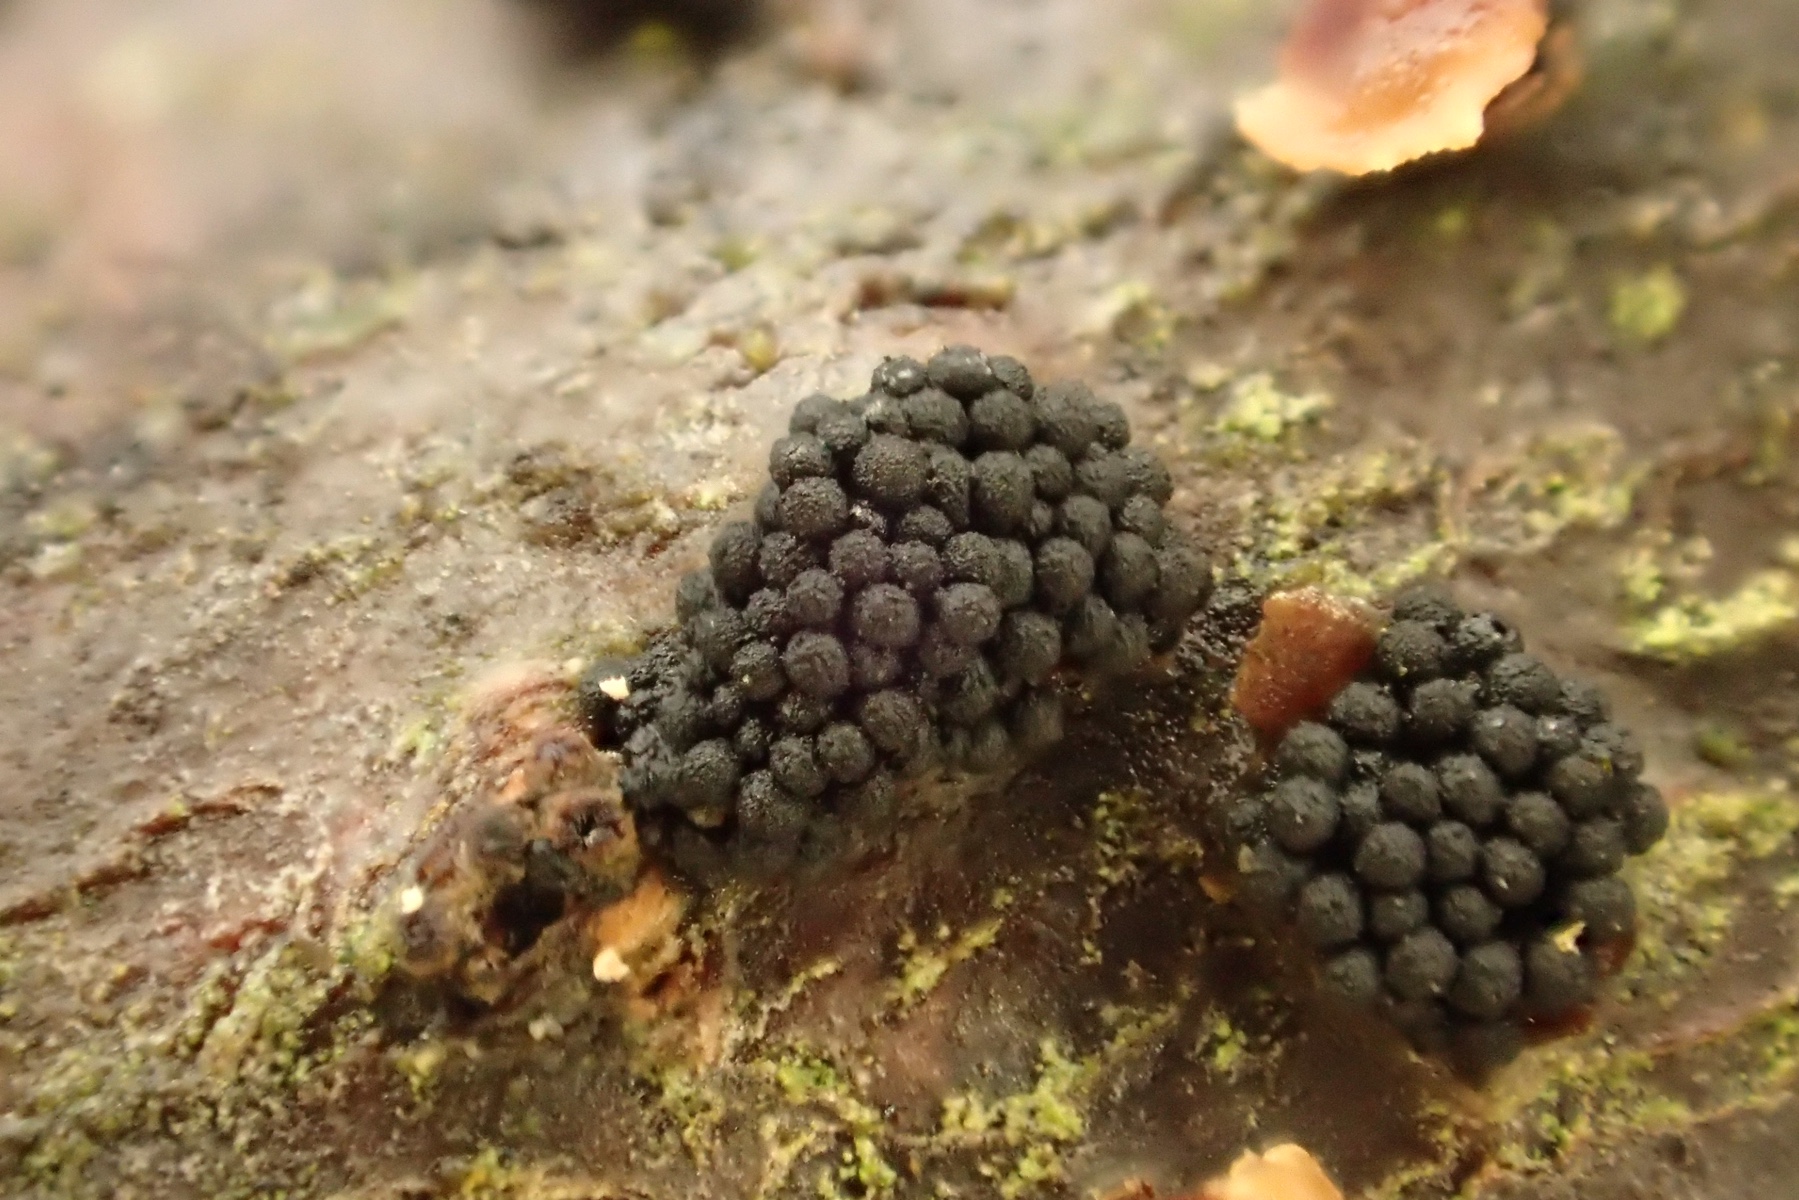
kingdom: Fungi
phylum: Ascomycota
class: Sordariomycetes
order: Coronophorales
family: Nitschkiaceae
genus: Nitschkia
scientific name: Nitschkia parasitans
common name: snyltende skålkerne
